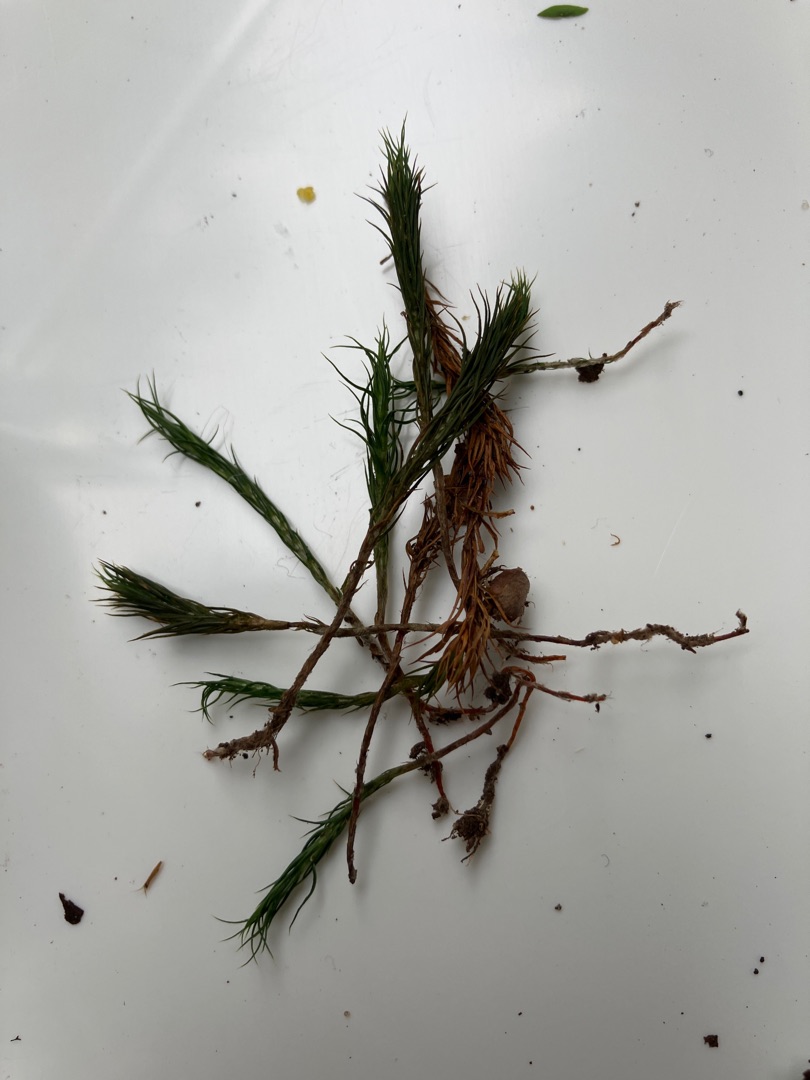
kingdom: Plantae
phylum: Bryophyta
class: Polytrichopsida
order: Polytrichales
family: Polytrichaceae
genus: Polytrichum
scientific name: Polytrichum
